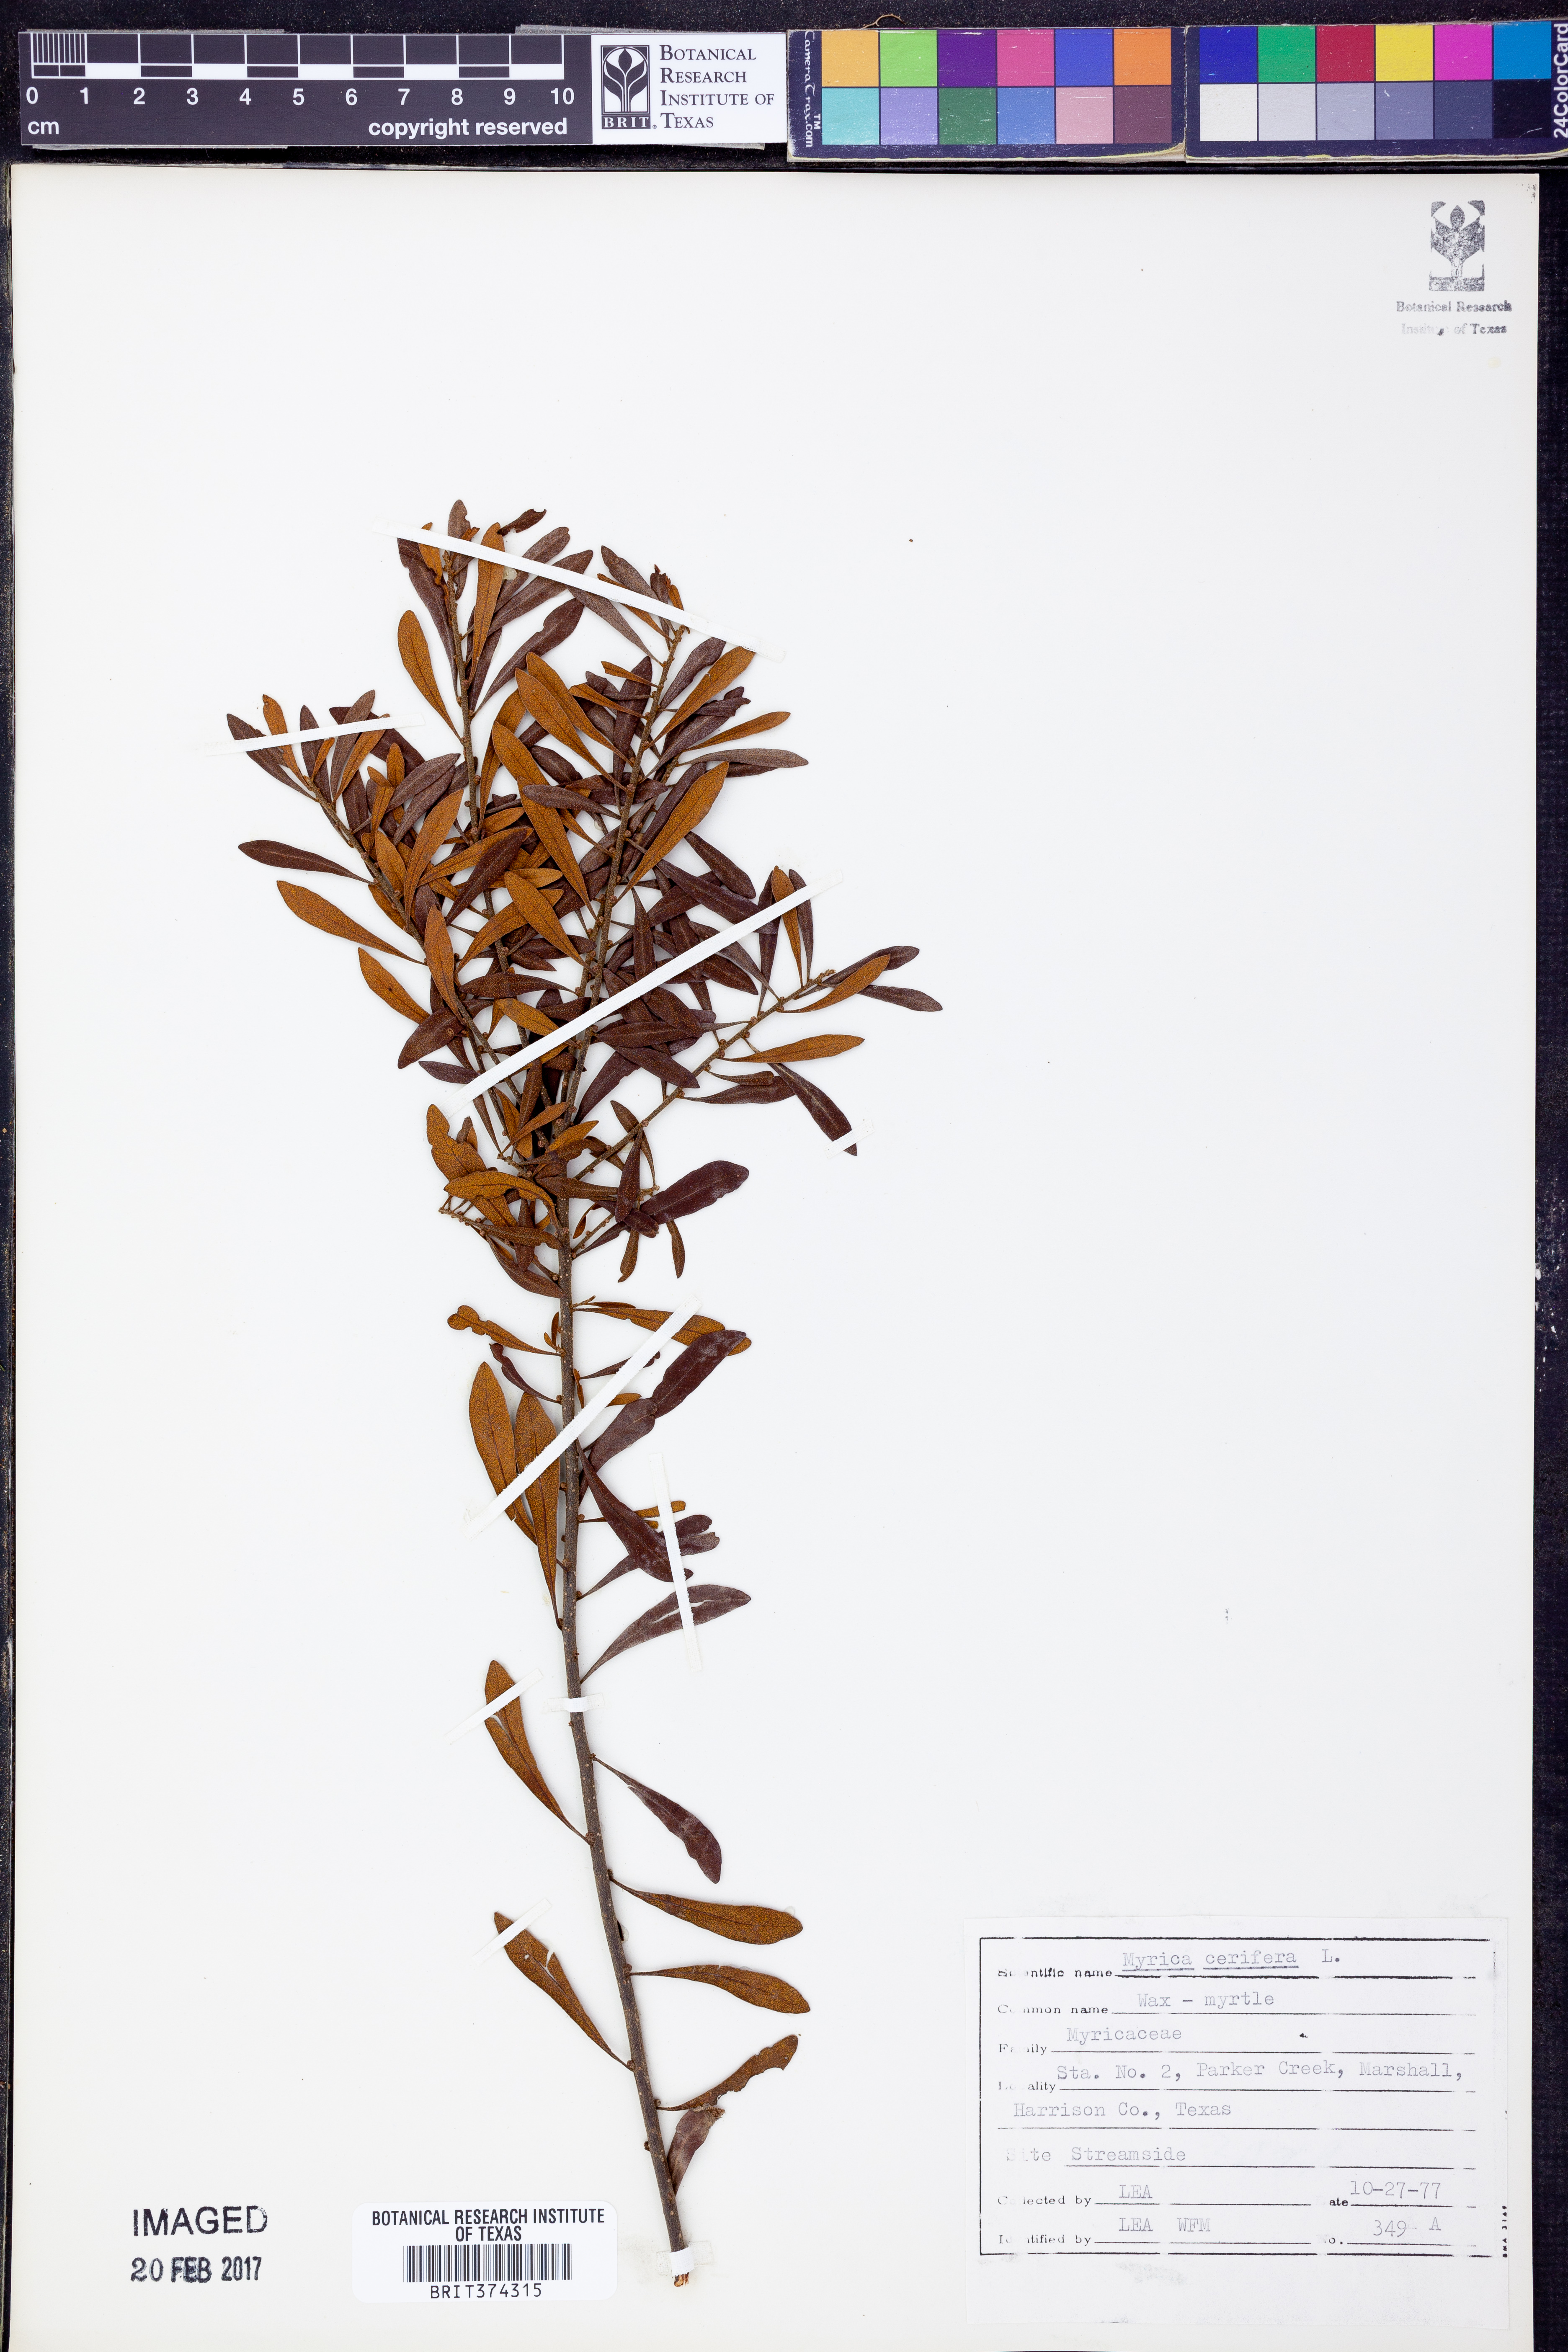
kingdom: Plantae
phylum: Tracheophyta
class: Magnoliopsida
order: Fagales
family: Myricaceae
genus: Morella
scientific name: Morella cerifera
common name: Wax myrtle
